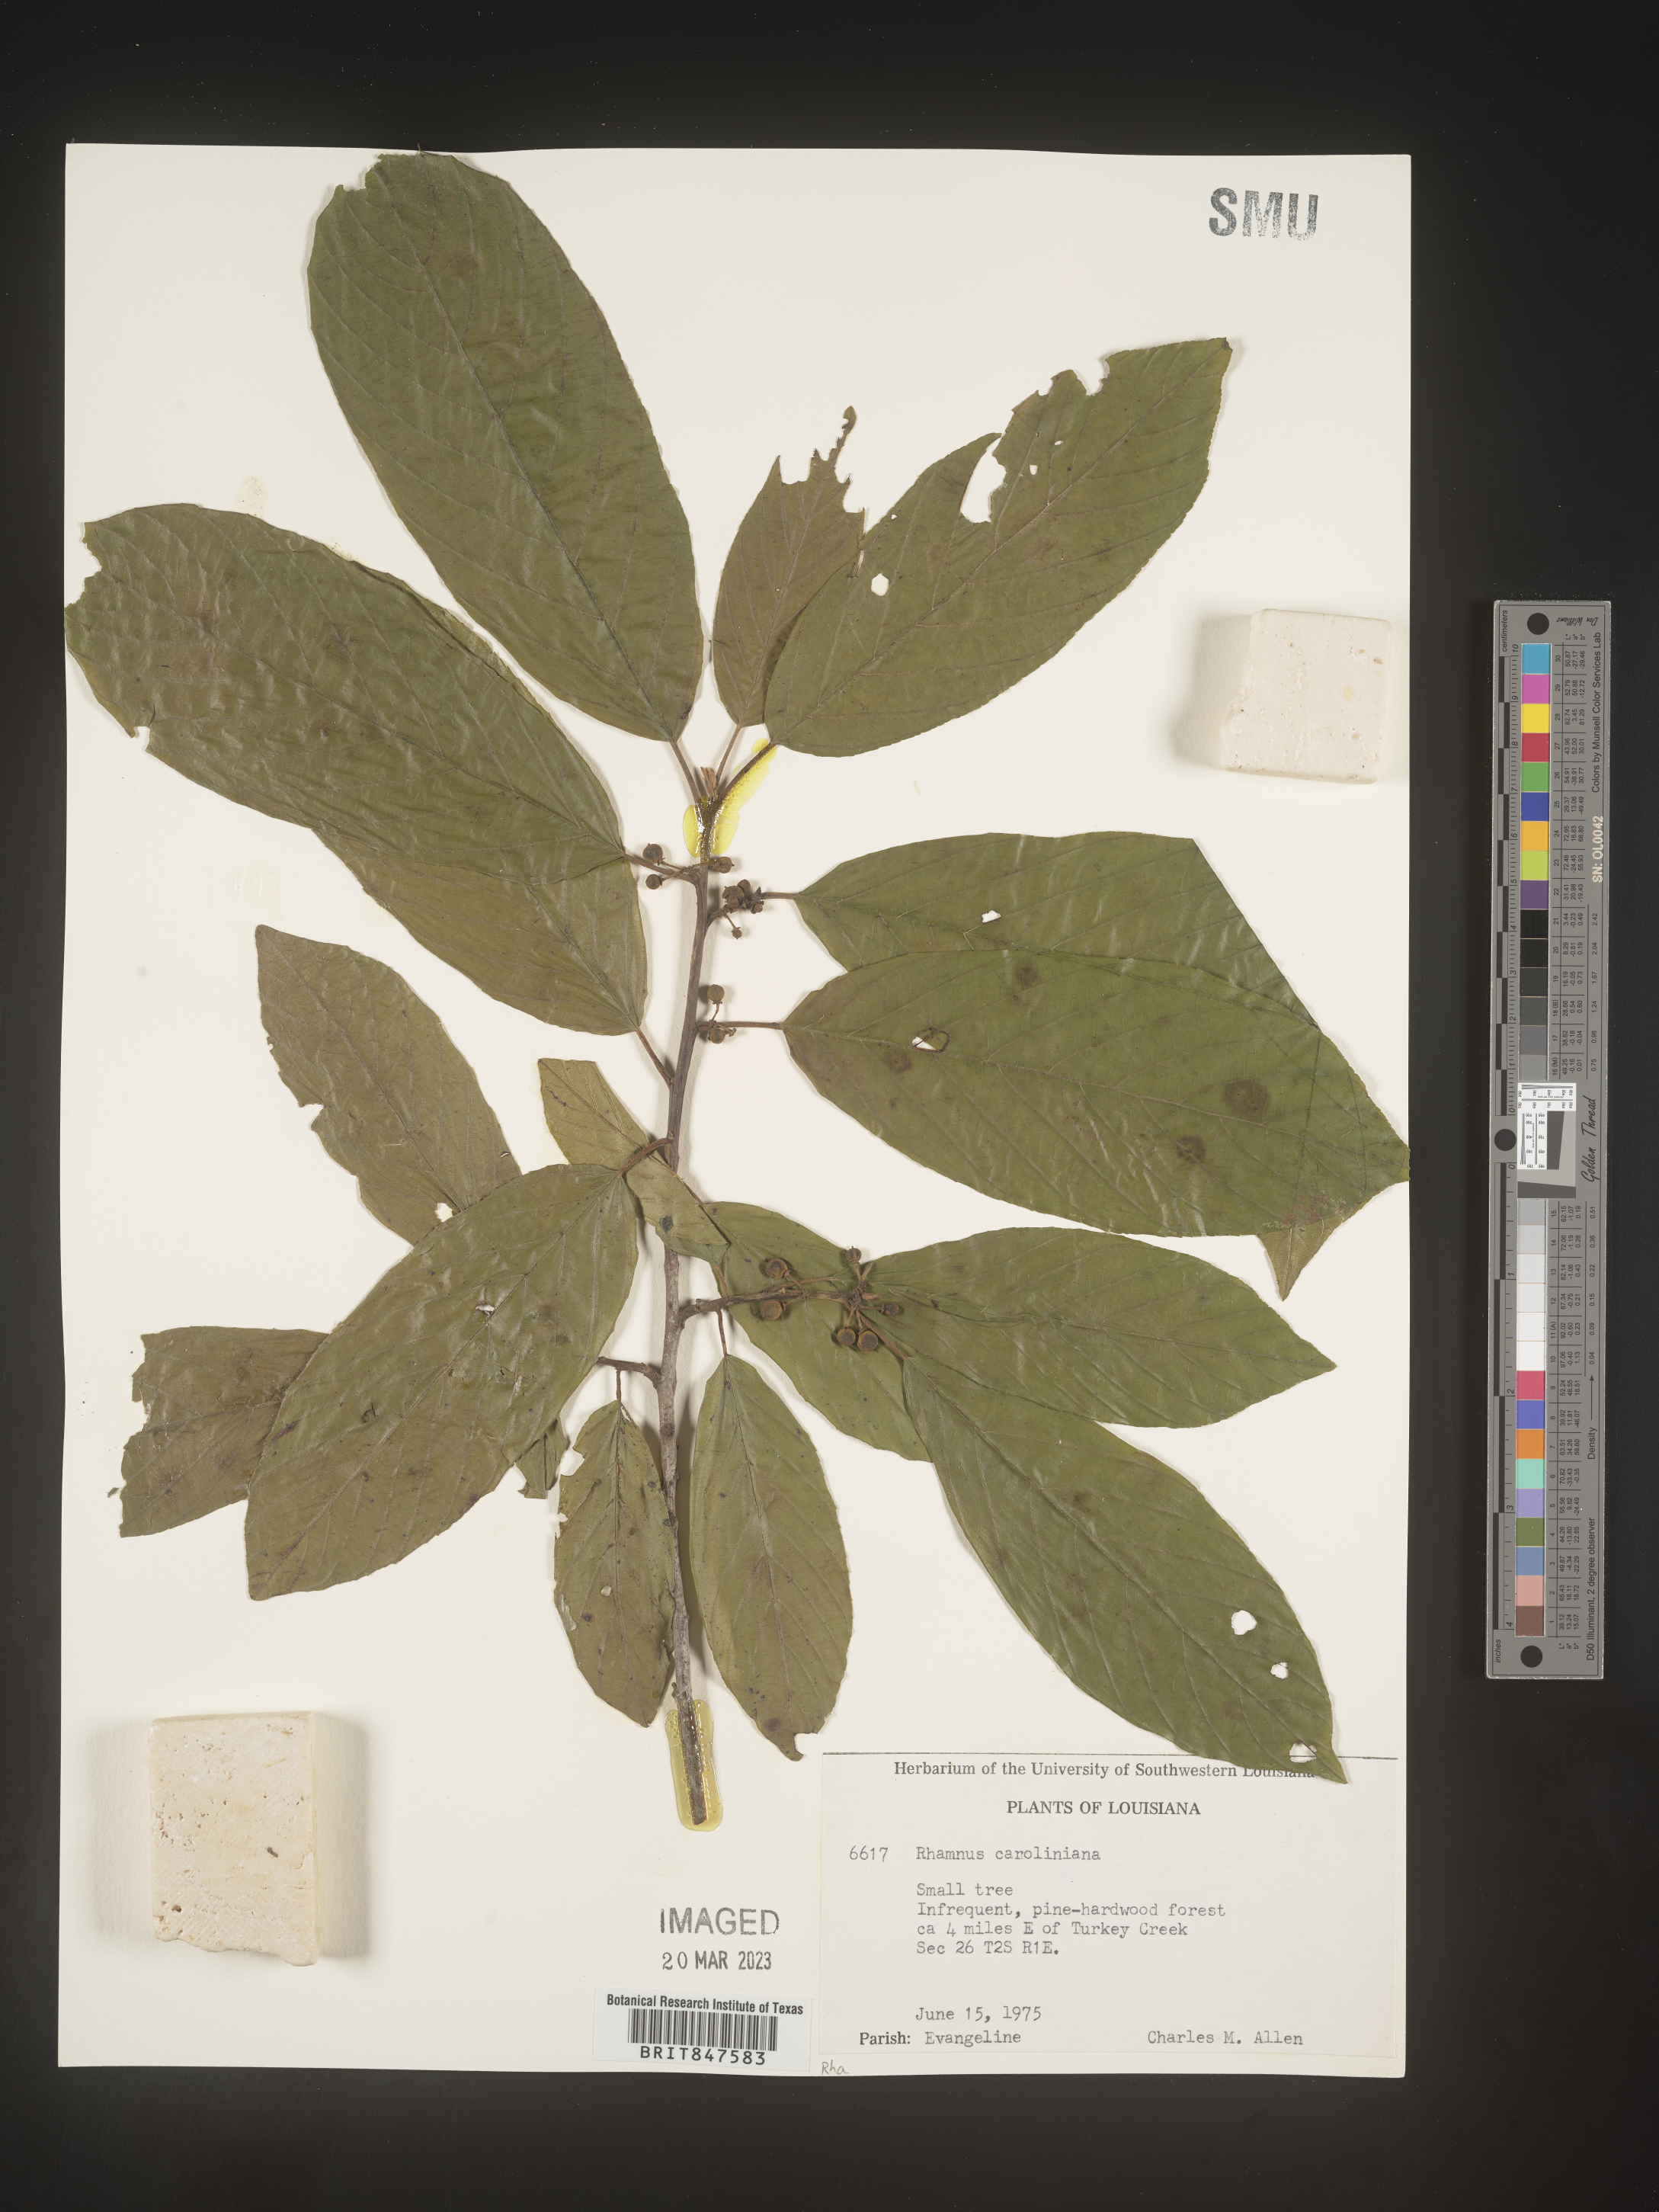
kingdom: Plantae
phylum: Tracheophyta
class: Magnoliopsida
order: Rosales
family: Rhamnaceae
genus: Frangula
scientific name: Frangula caroliniana
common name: Carolina buckthorn
